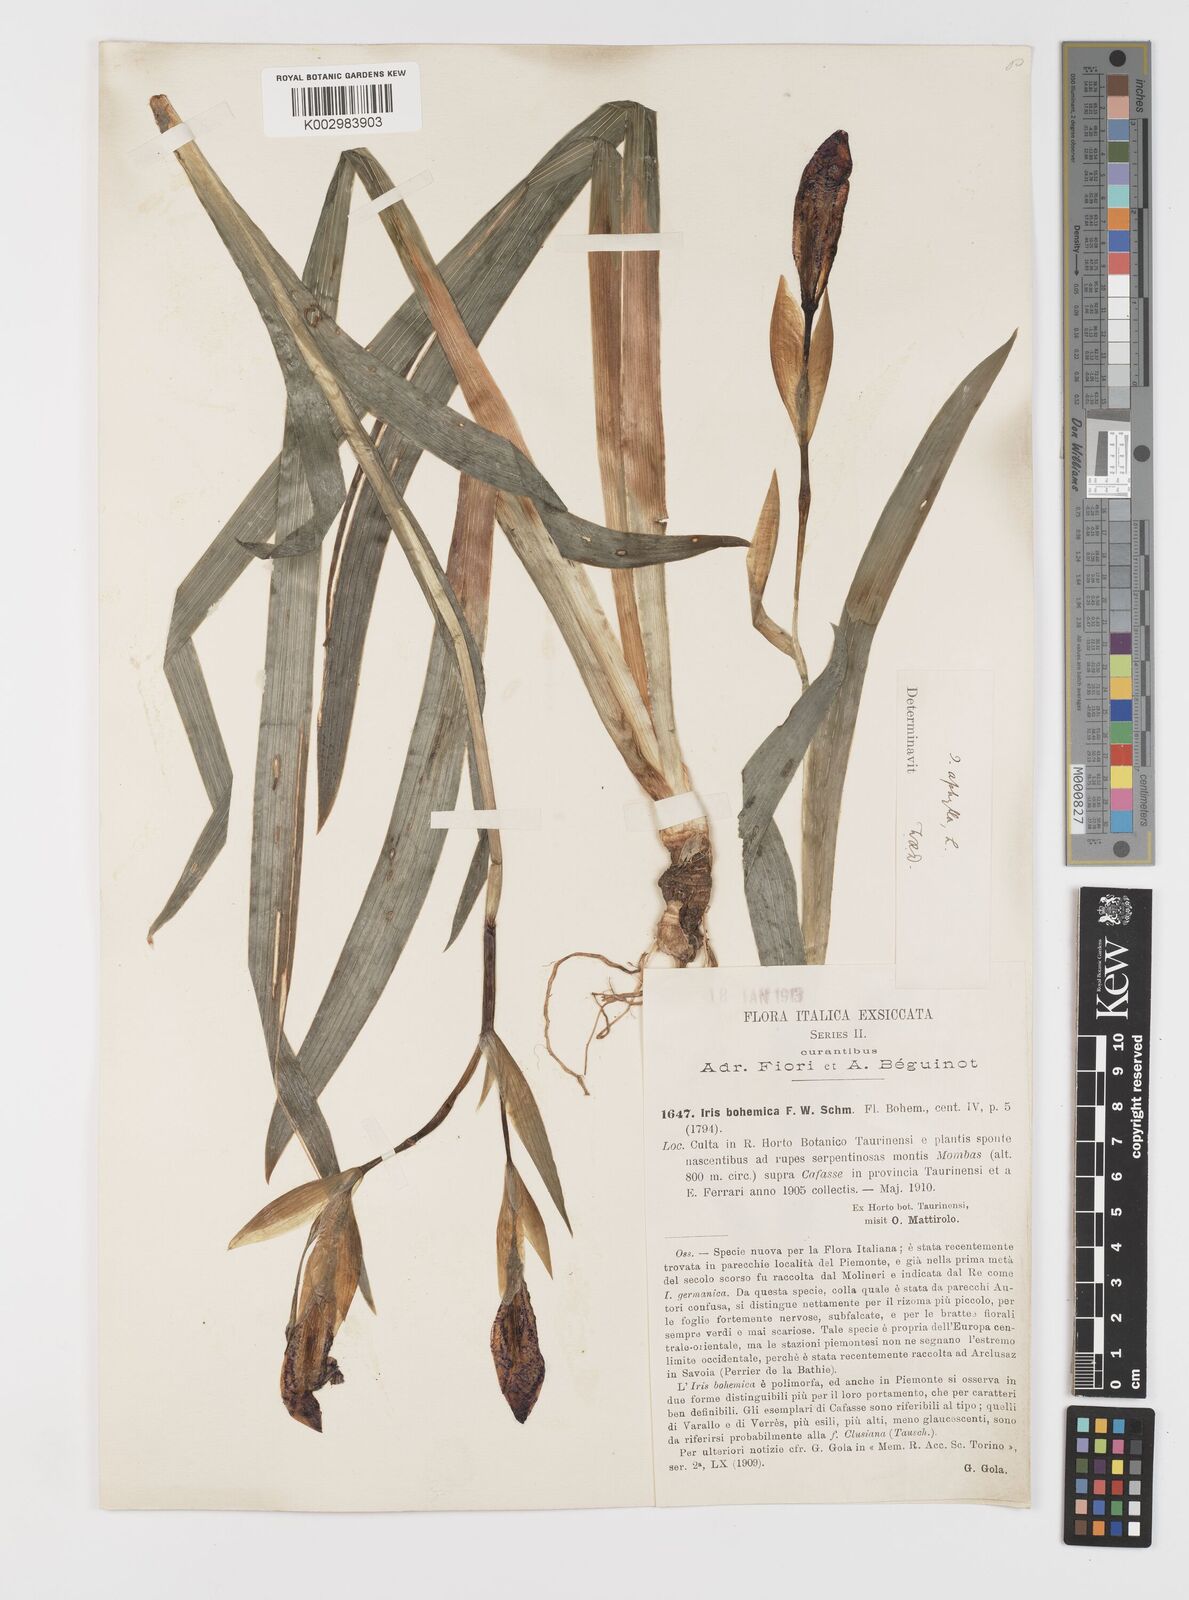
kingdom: Plantae
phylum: Tracheophyta
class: Liliopsida
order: Asparagales
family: Iridaceae
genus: Iris
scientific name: Iris perrieri
